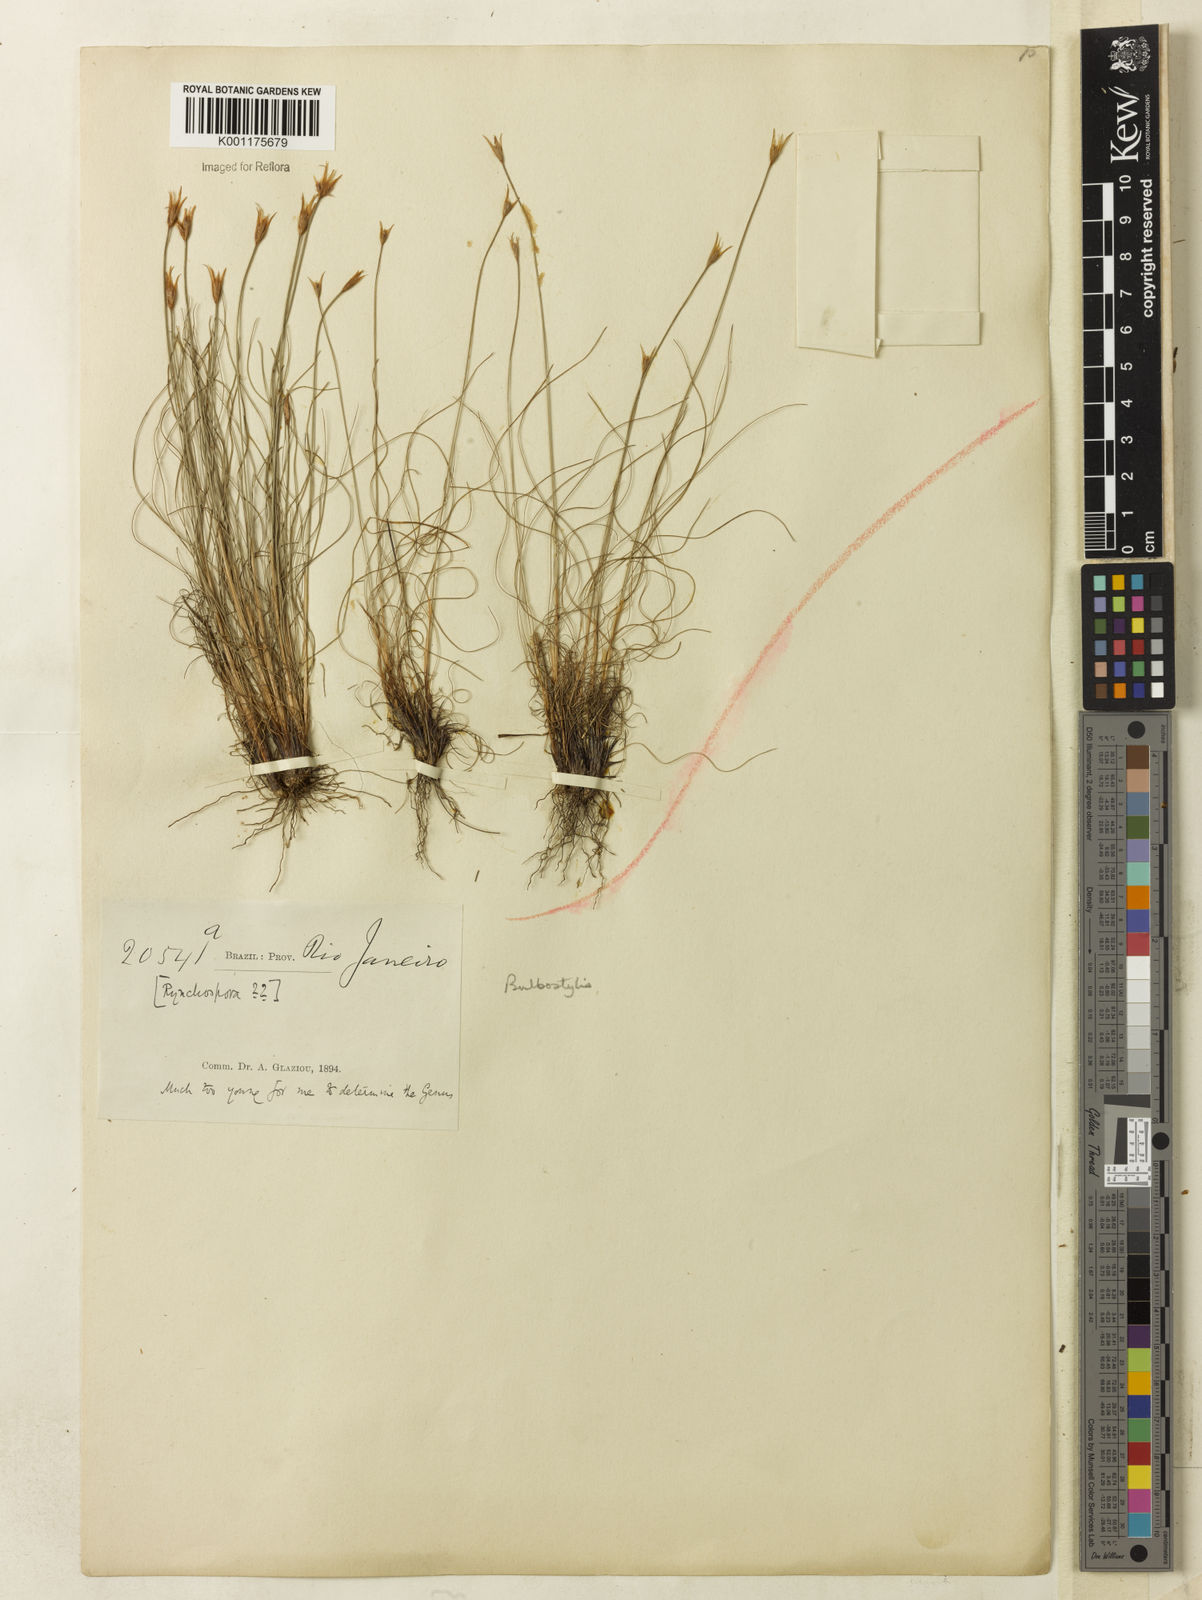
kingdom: Plantae
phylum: Tracheophyta
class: Liliopsida
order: Poales
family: Cyperaceae
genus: Bulbostylis
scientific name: Bulbostylis sphaerocephala
